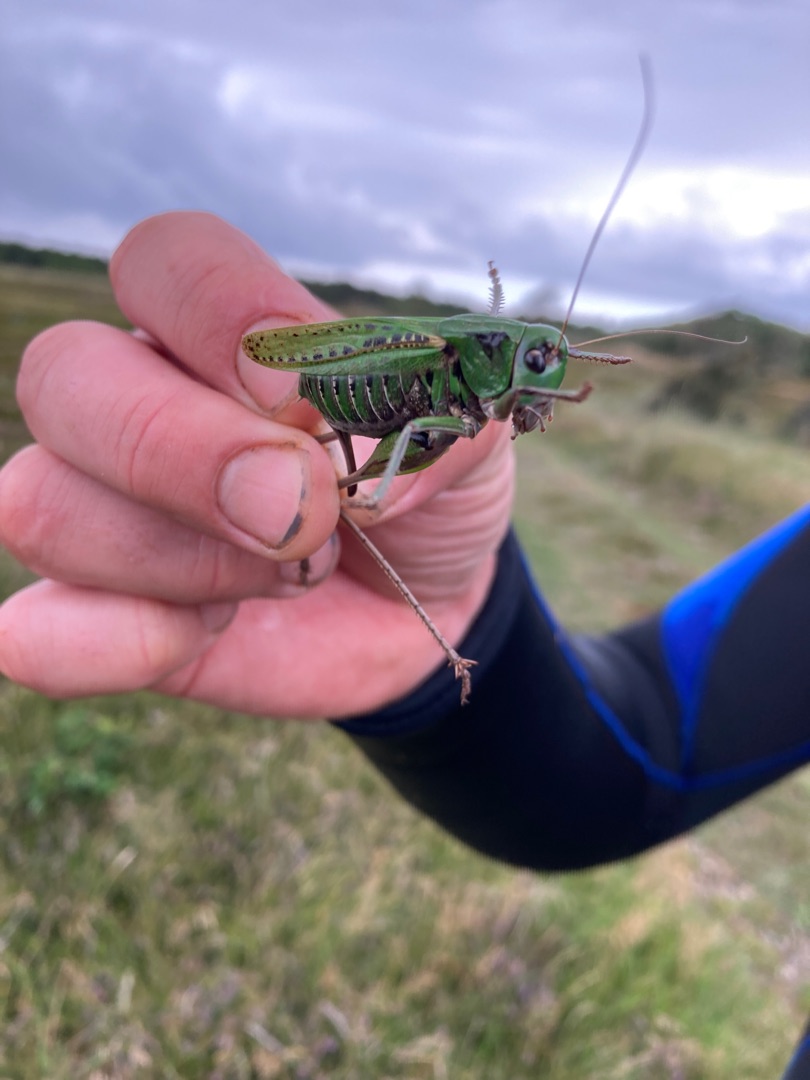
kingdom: Animalia
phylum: Arthropoda
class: Insecta
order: Orthoptera
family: Tettigoniidae
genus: Decticus
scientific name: Decticus verrucivorus
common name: Vortebider
